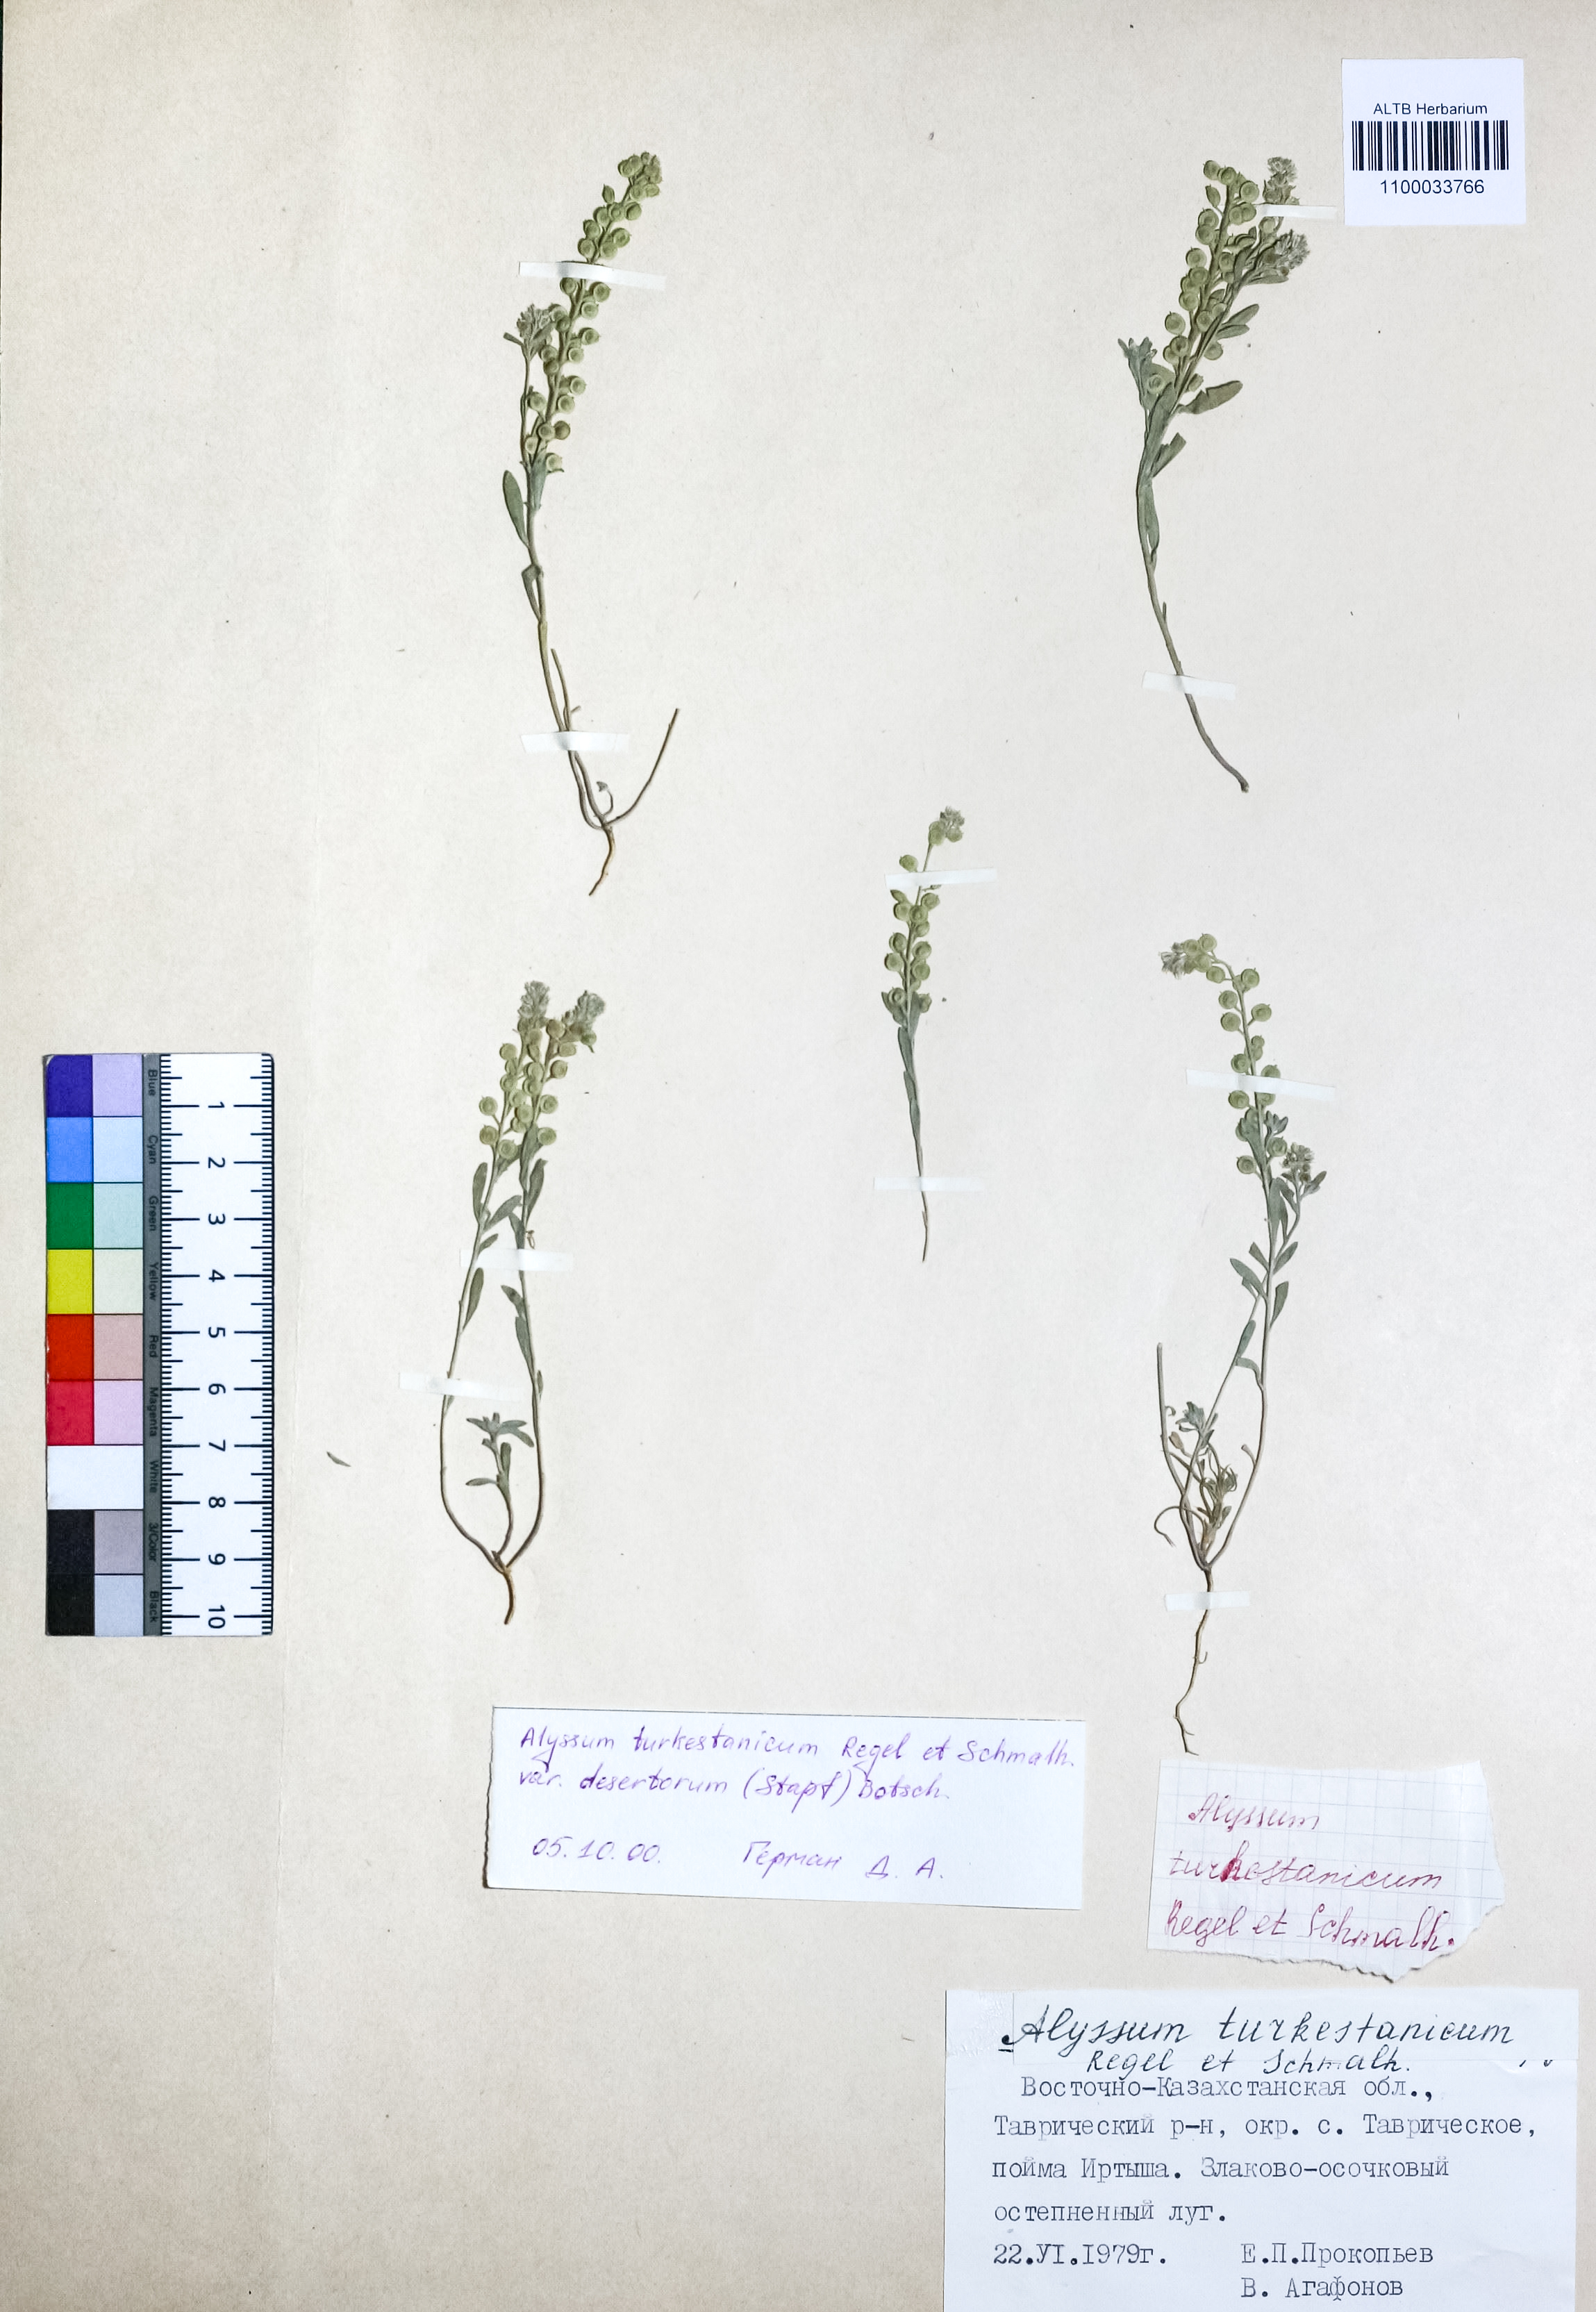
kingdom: Plantae
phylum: Tracheophyta
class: Magnoliopsida
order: Brassicales
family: Brassicaceae
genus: Alyssum
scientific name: Alyssum turkestanicum
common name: Desert alyssum
